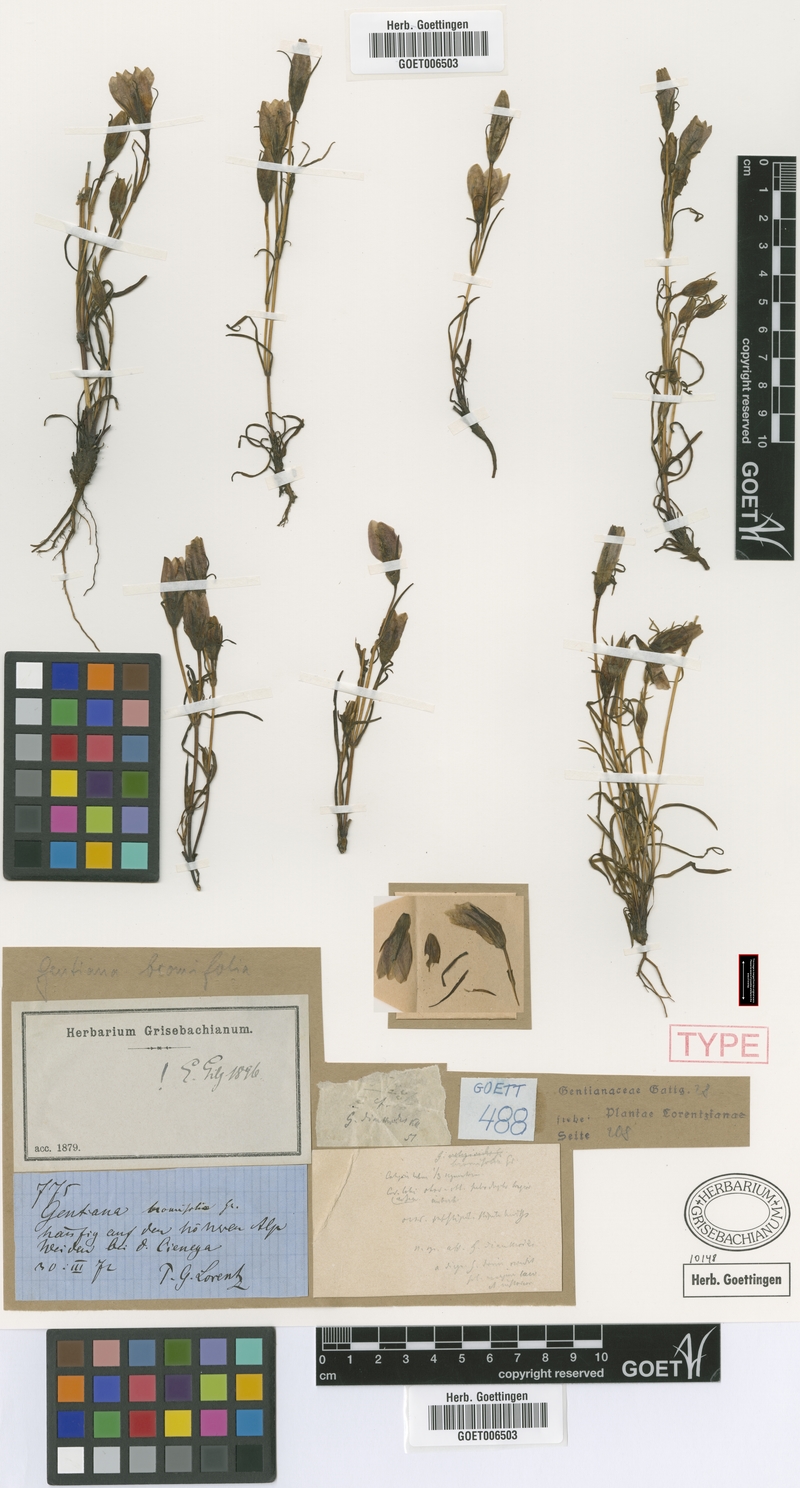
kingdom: Plantae
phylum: Tracheophyta
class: Magnoliopsida
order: Gentianales
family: Gentianaceae
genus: Gentianella
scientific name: Gentianella bromifolia
